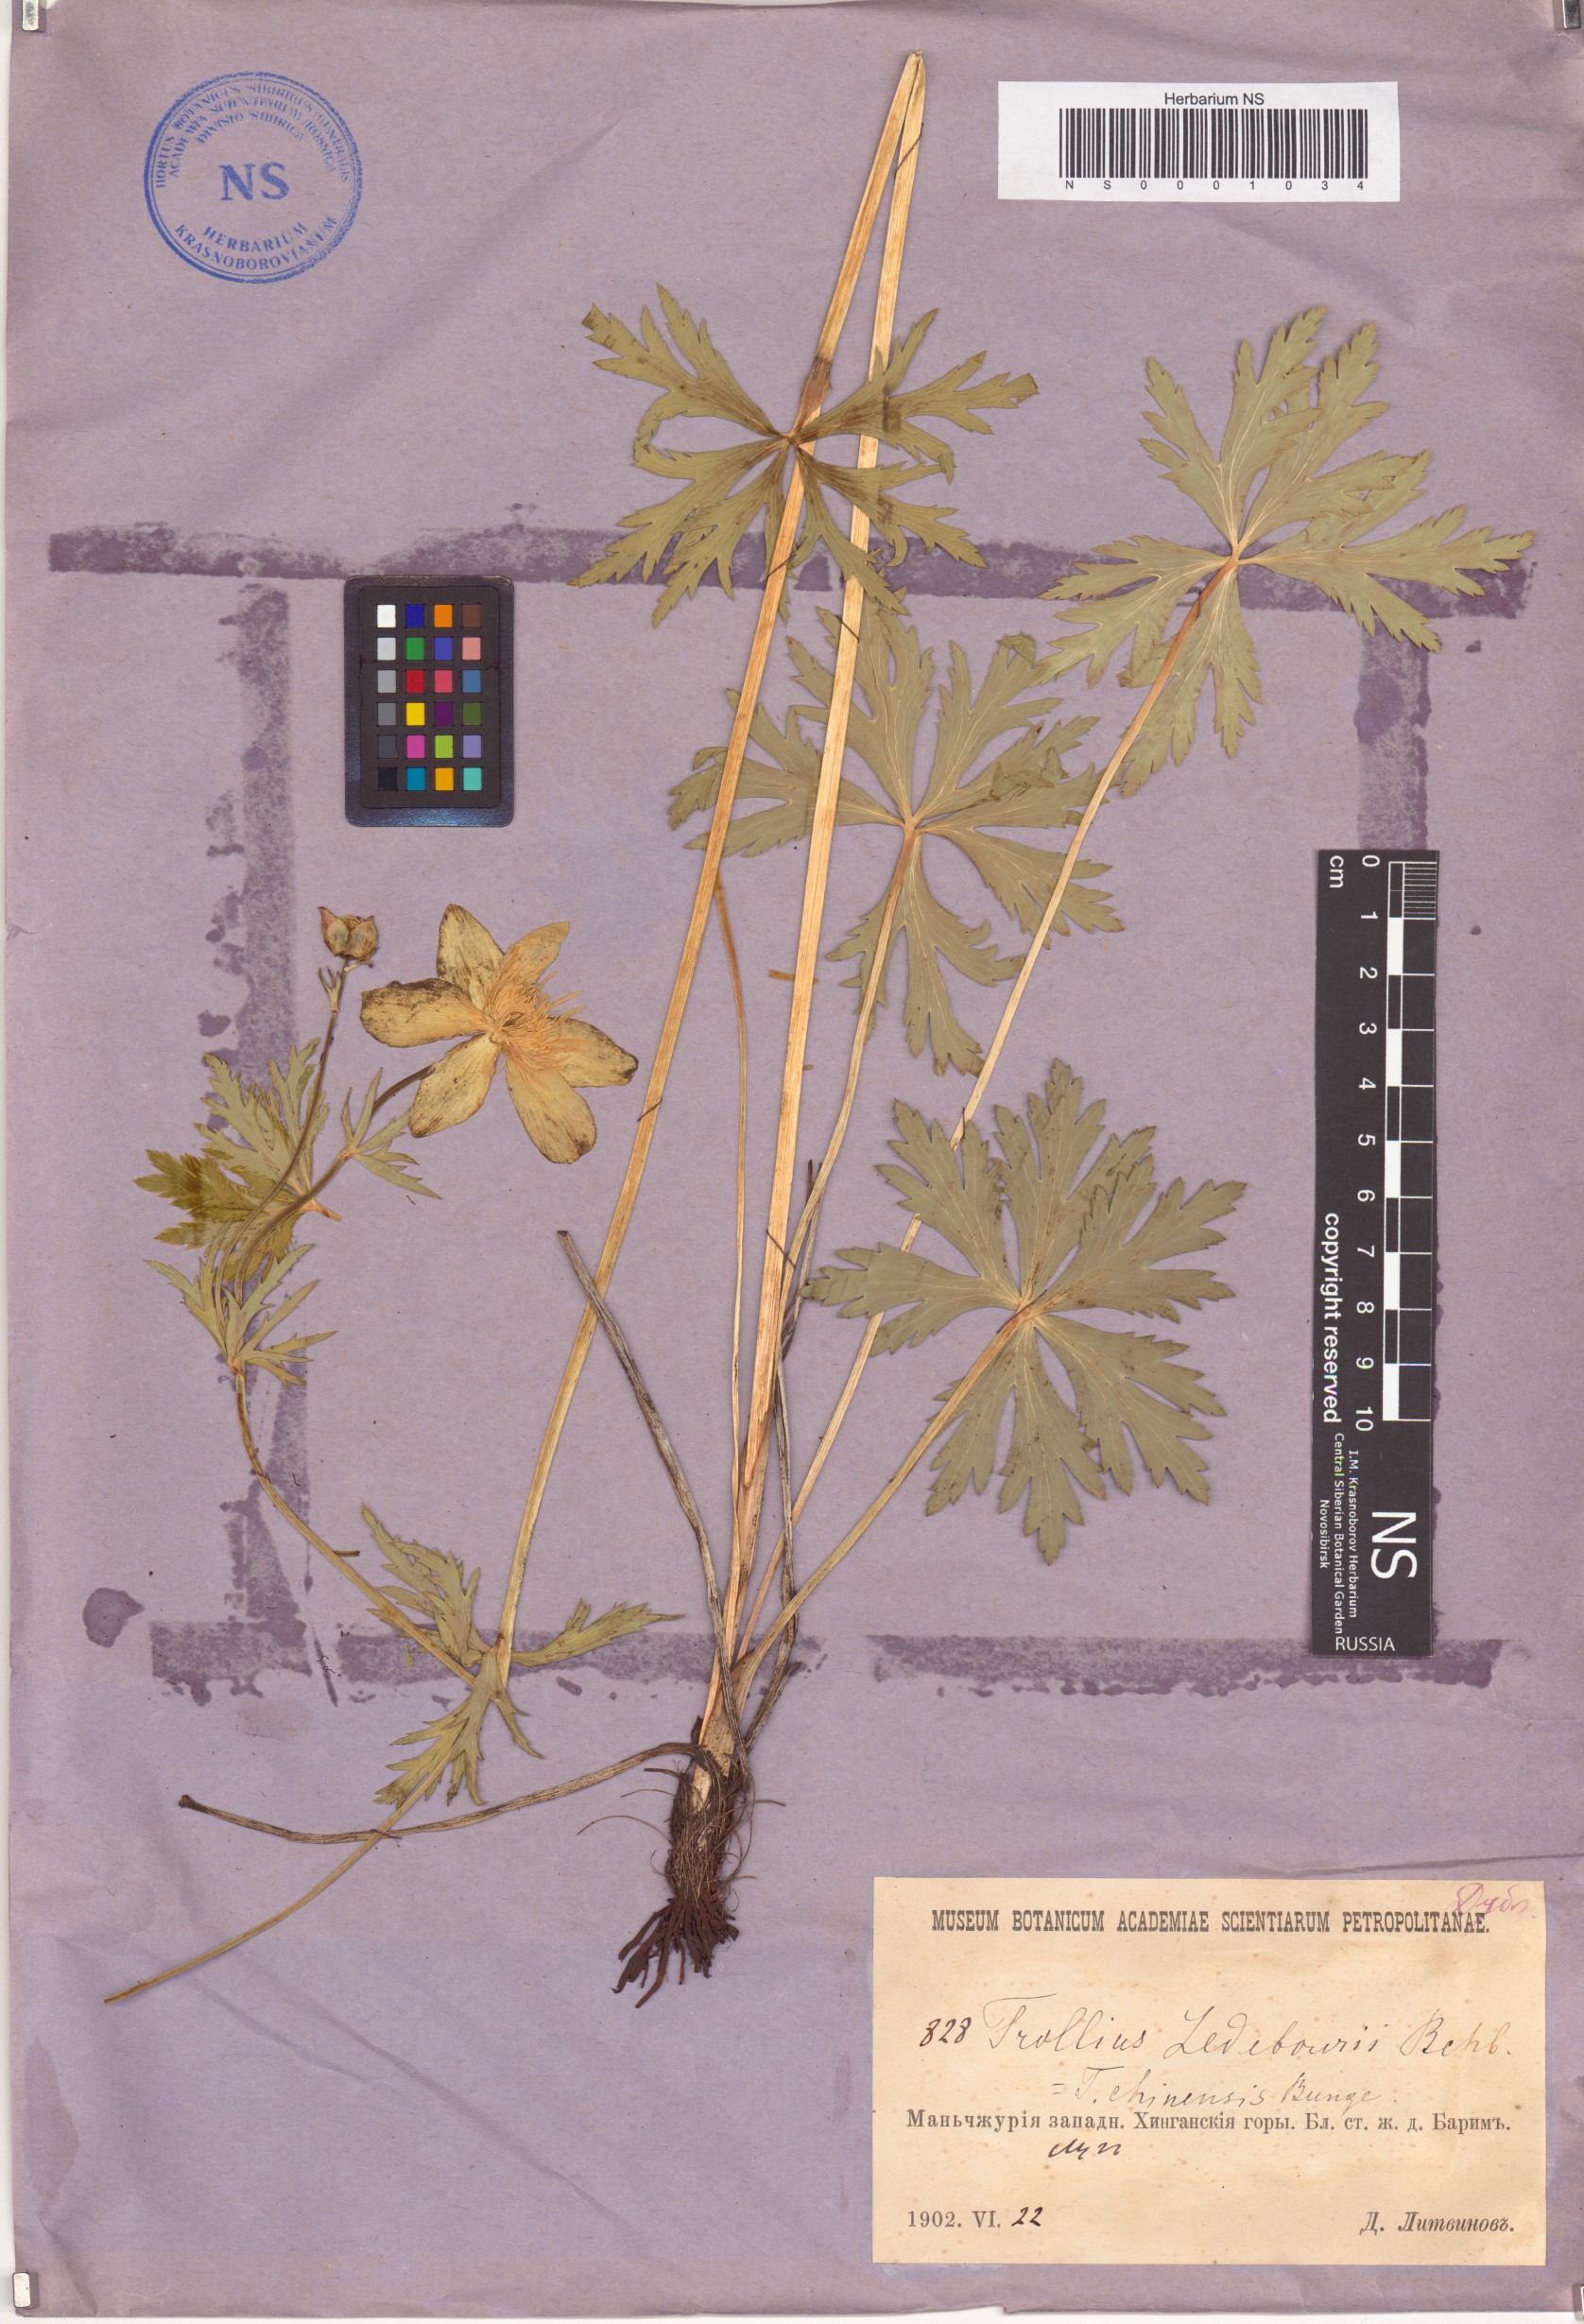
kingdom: Plantae
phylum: Tracheophyta
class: Magnoliopsida
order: Ranunculales
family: Ranunculaceae
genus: Trollius
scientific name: Trollius ledebourii
